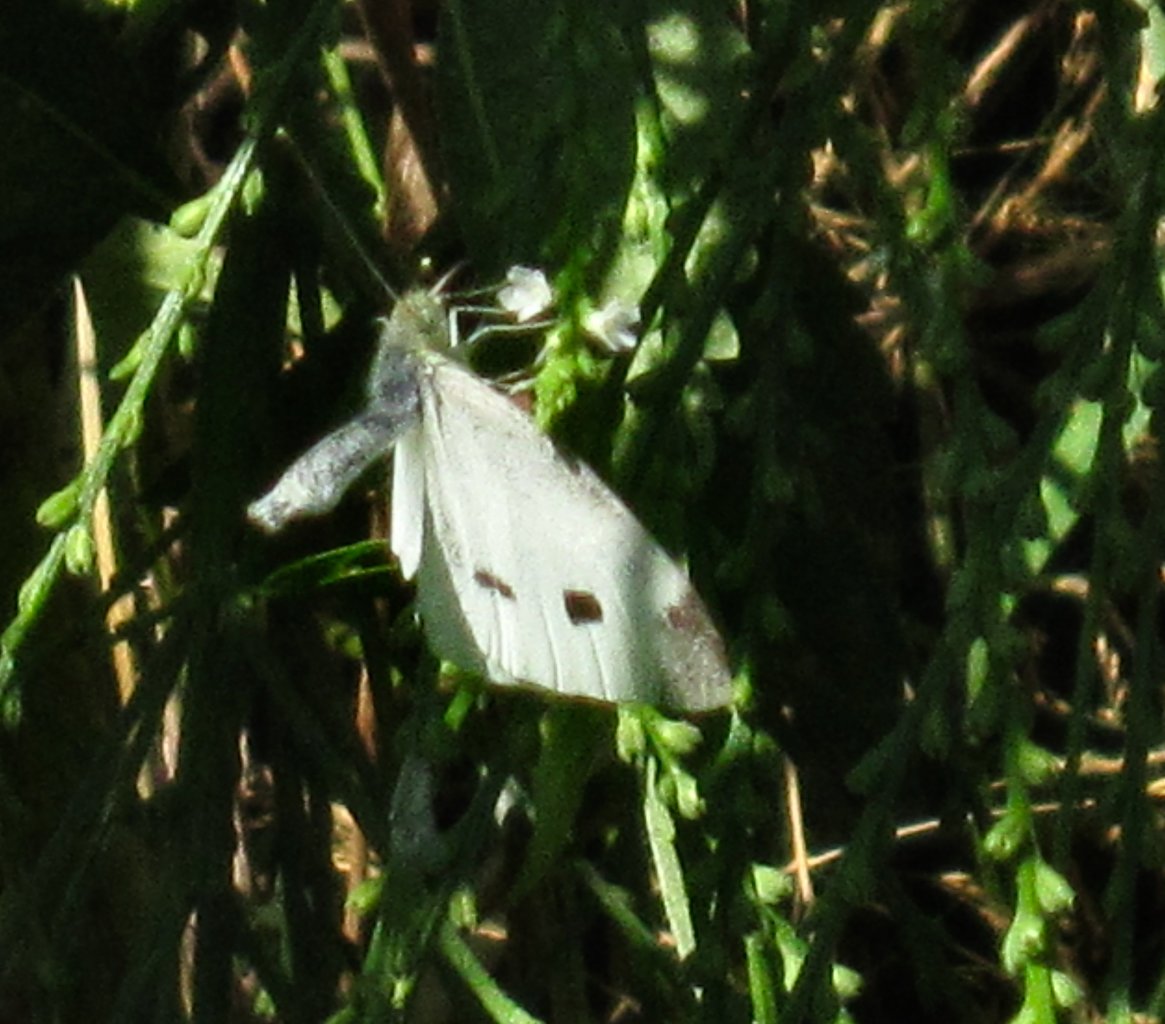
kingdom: Animalia
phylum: Arthropoda
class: Insecta
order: Lepidoptera
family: Pieridae
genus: Pieris
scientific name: Pieris rapae
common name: Cabbage White
